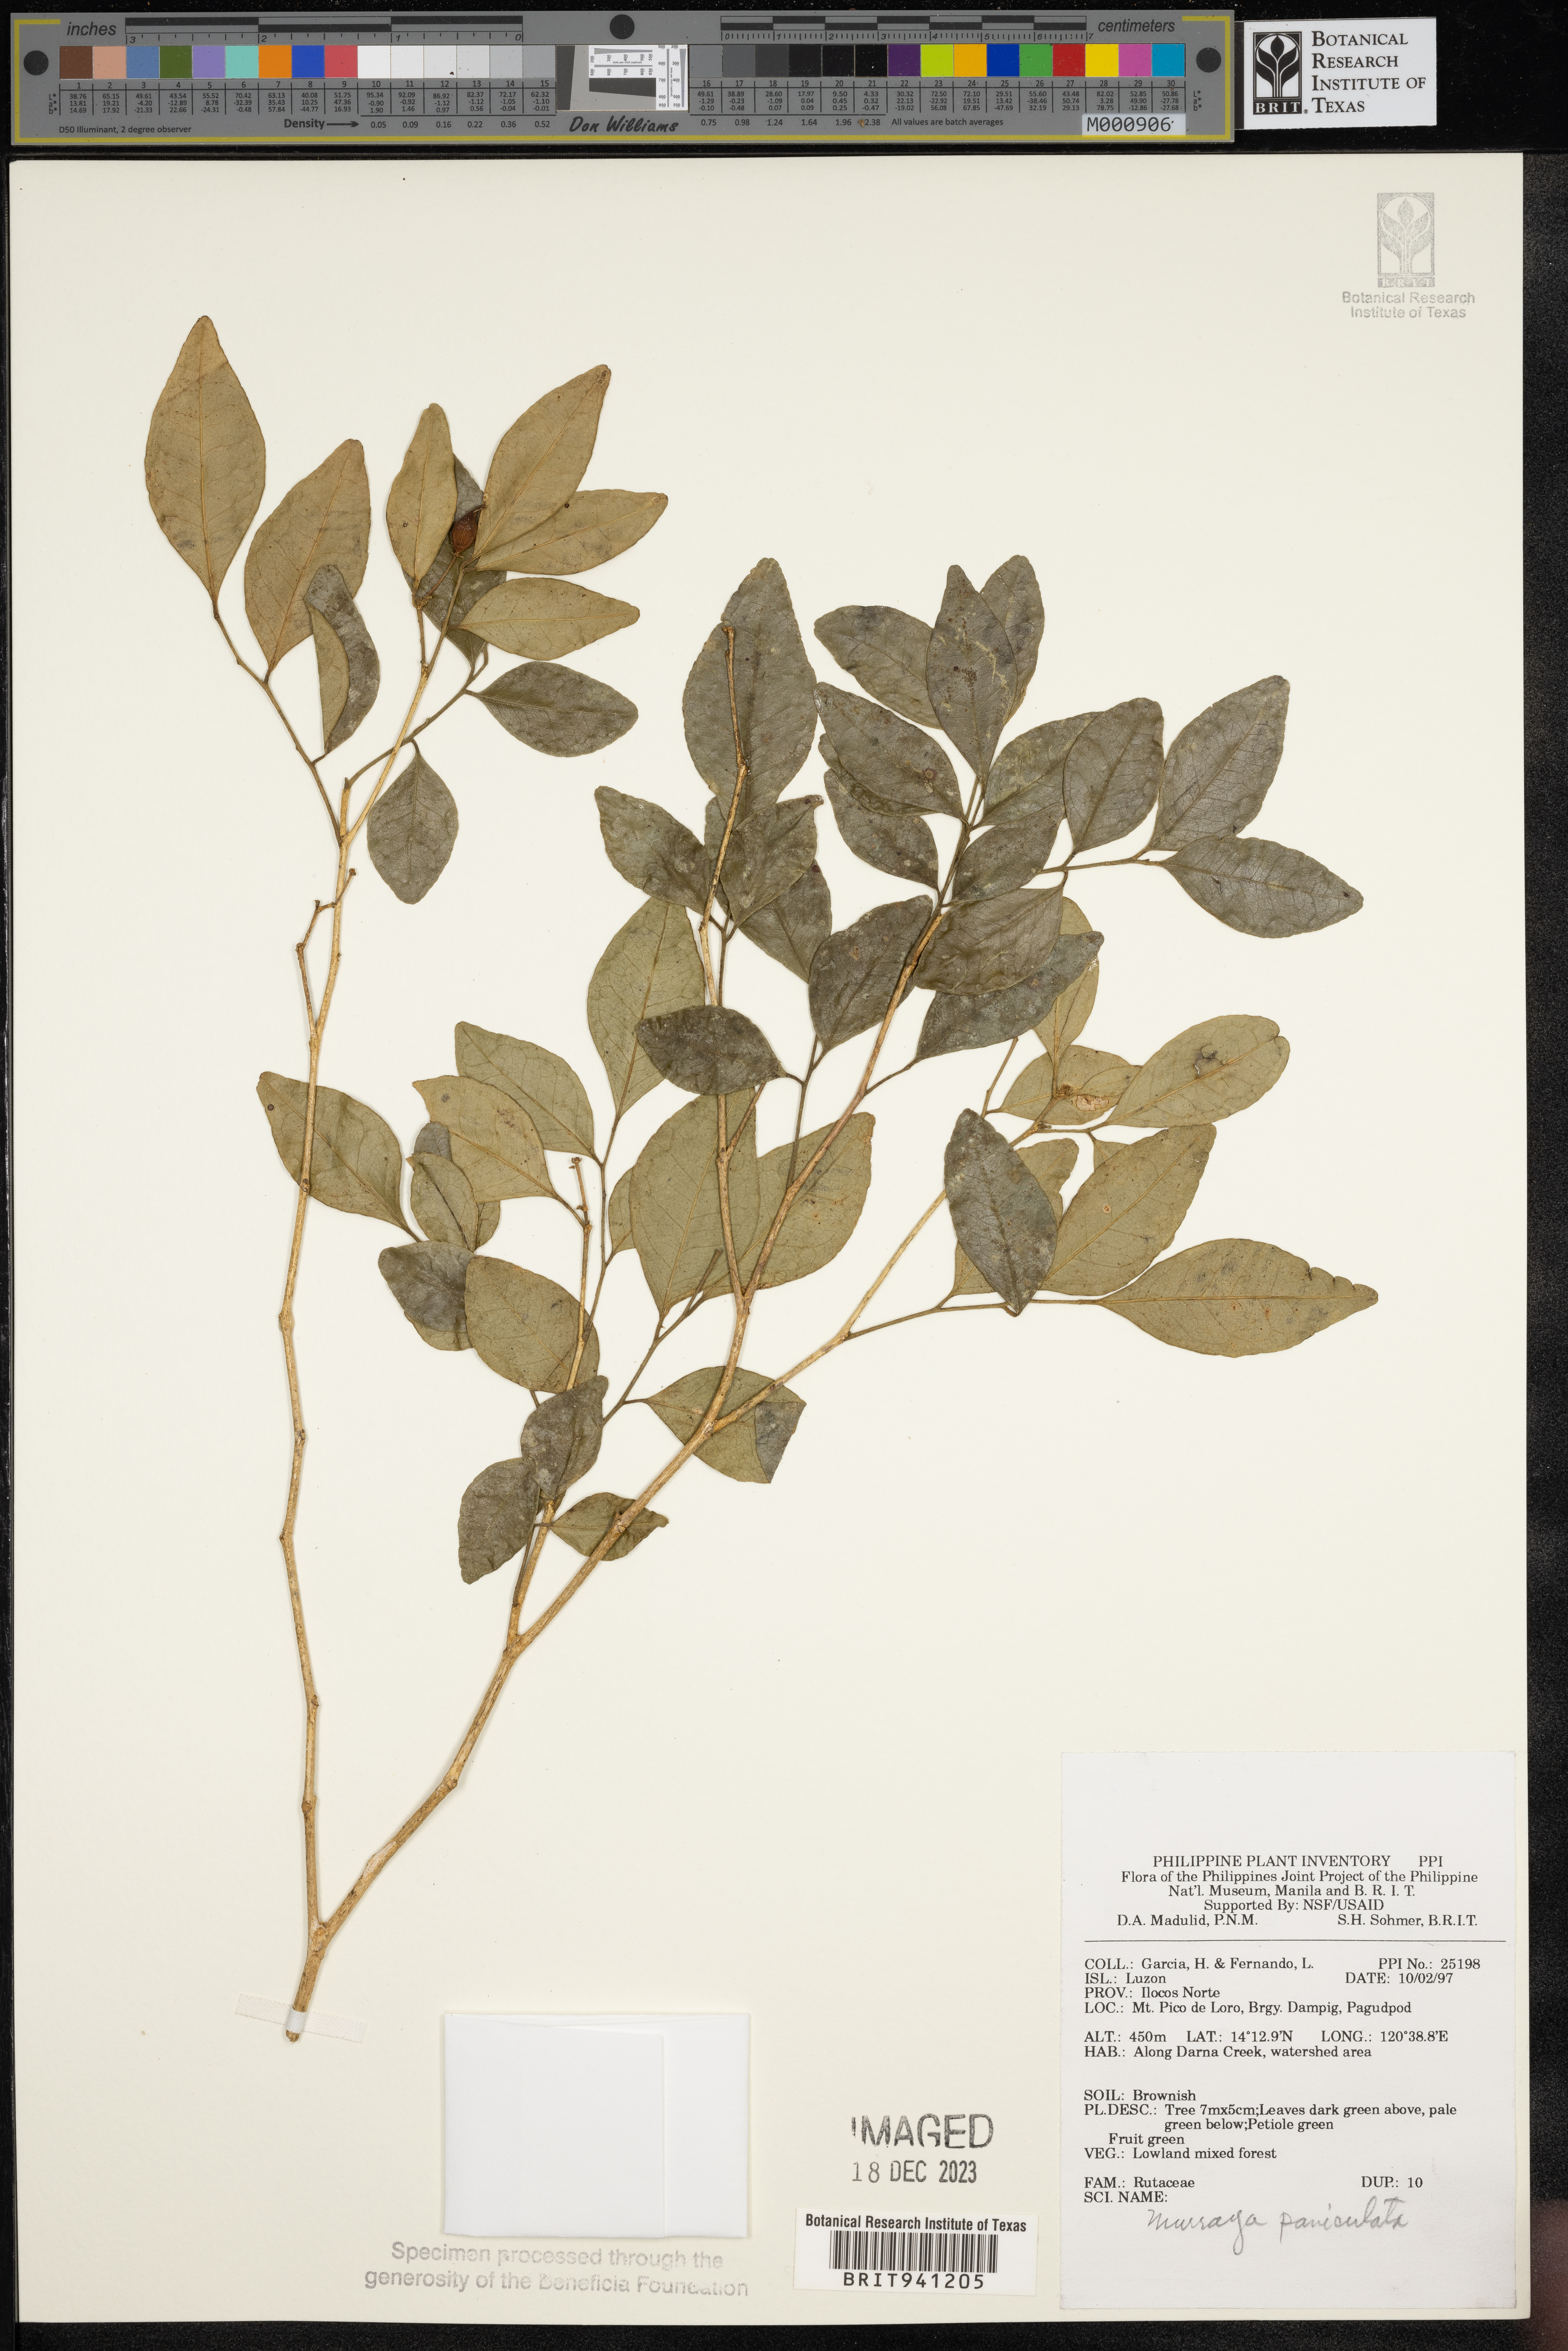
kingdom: Plantae
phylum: Tracheophyta
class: Magnoliopsida
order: Sapindales
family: Rutaceae
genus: Murraya
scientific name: Murraya
